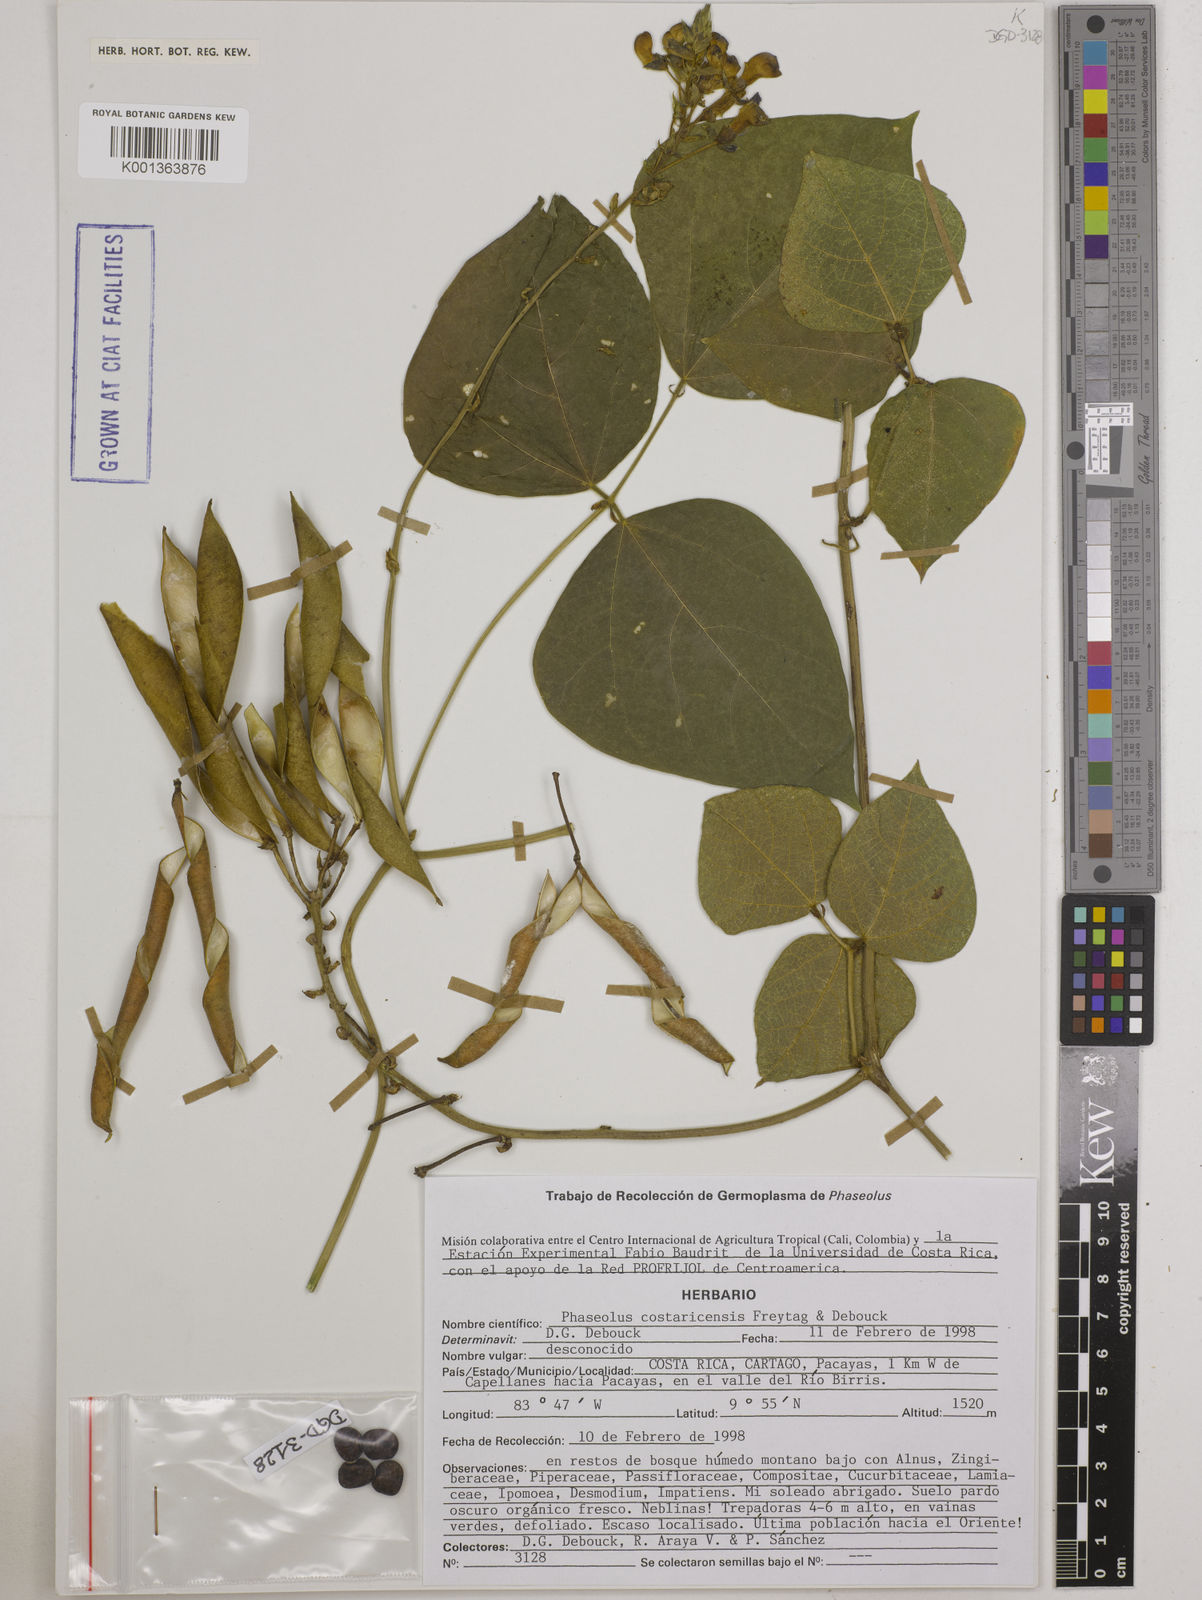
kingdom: Plantae
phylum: Tracheophyta
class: Magnoliopsida
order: Fabales
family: Fabaceae
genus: Phaseolus
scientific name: Phaseolus costaricensis
